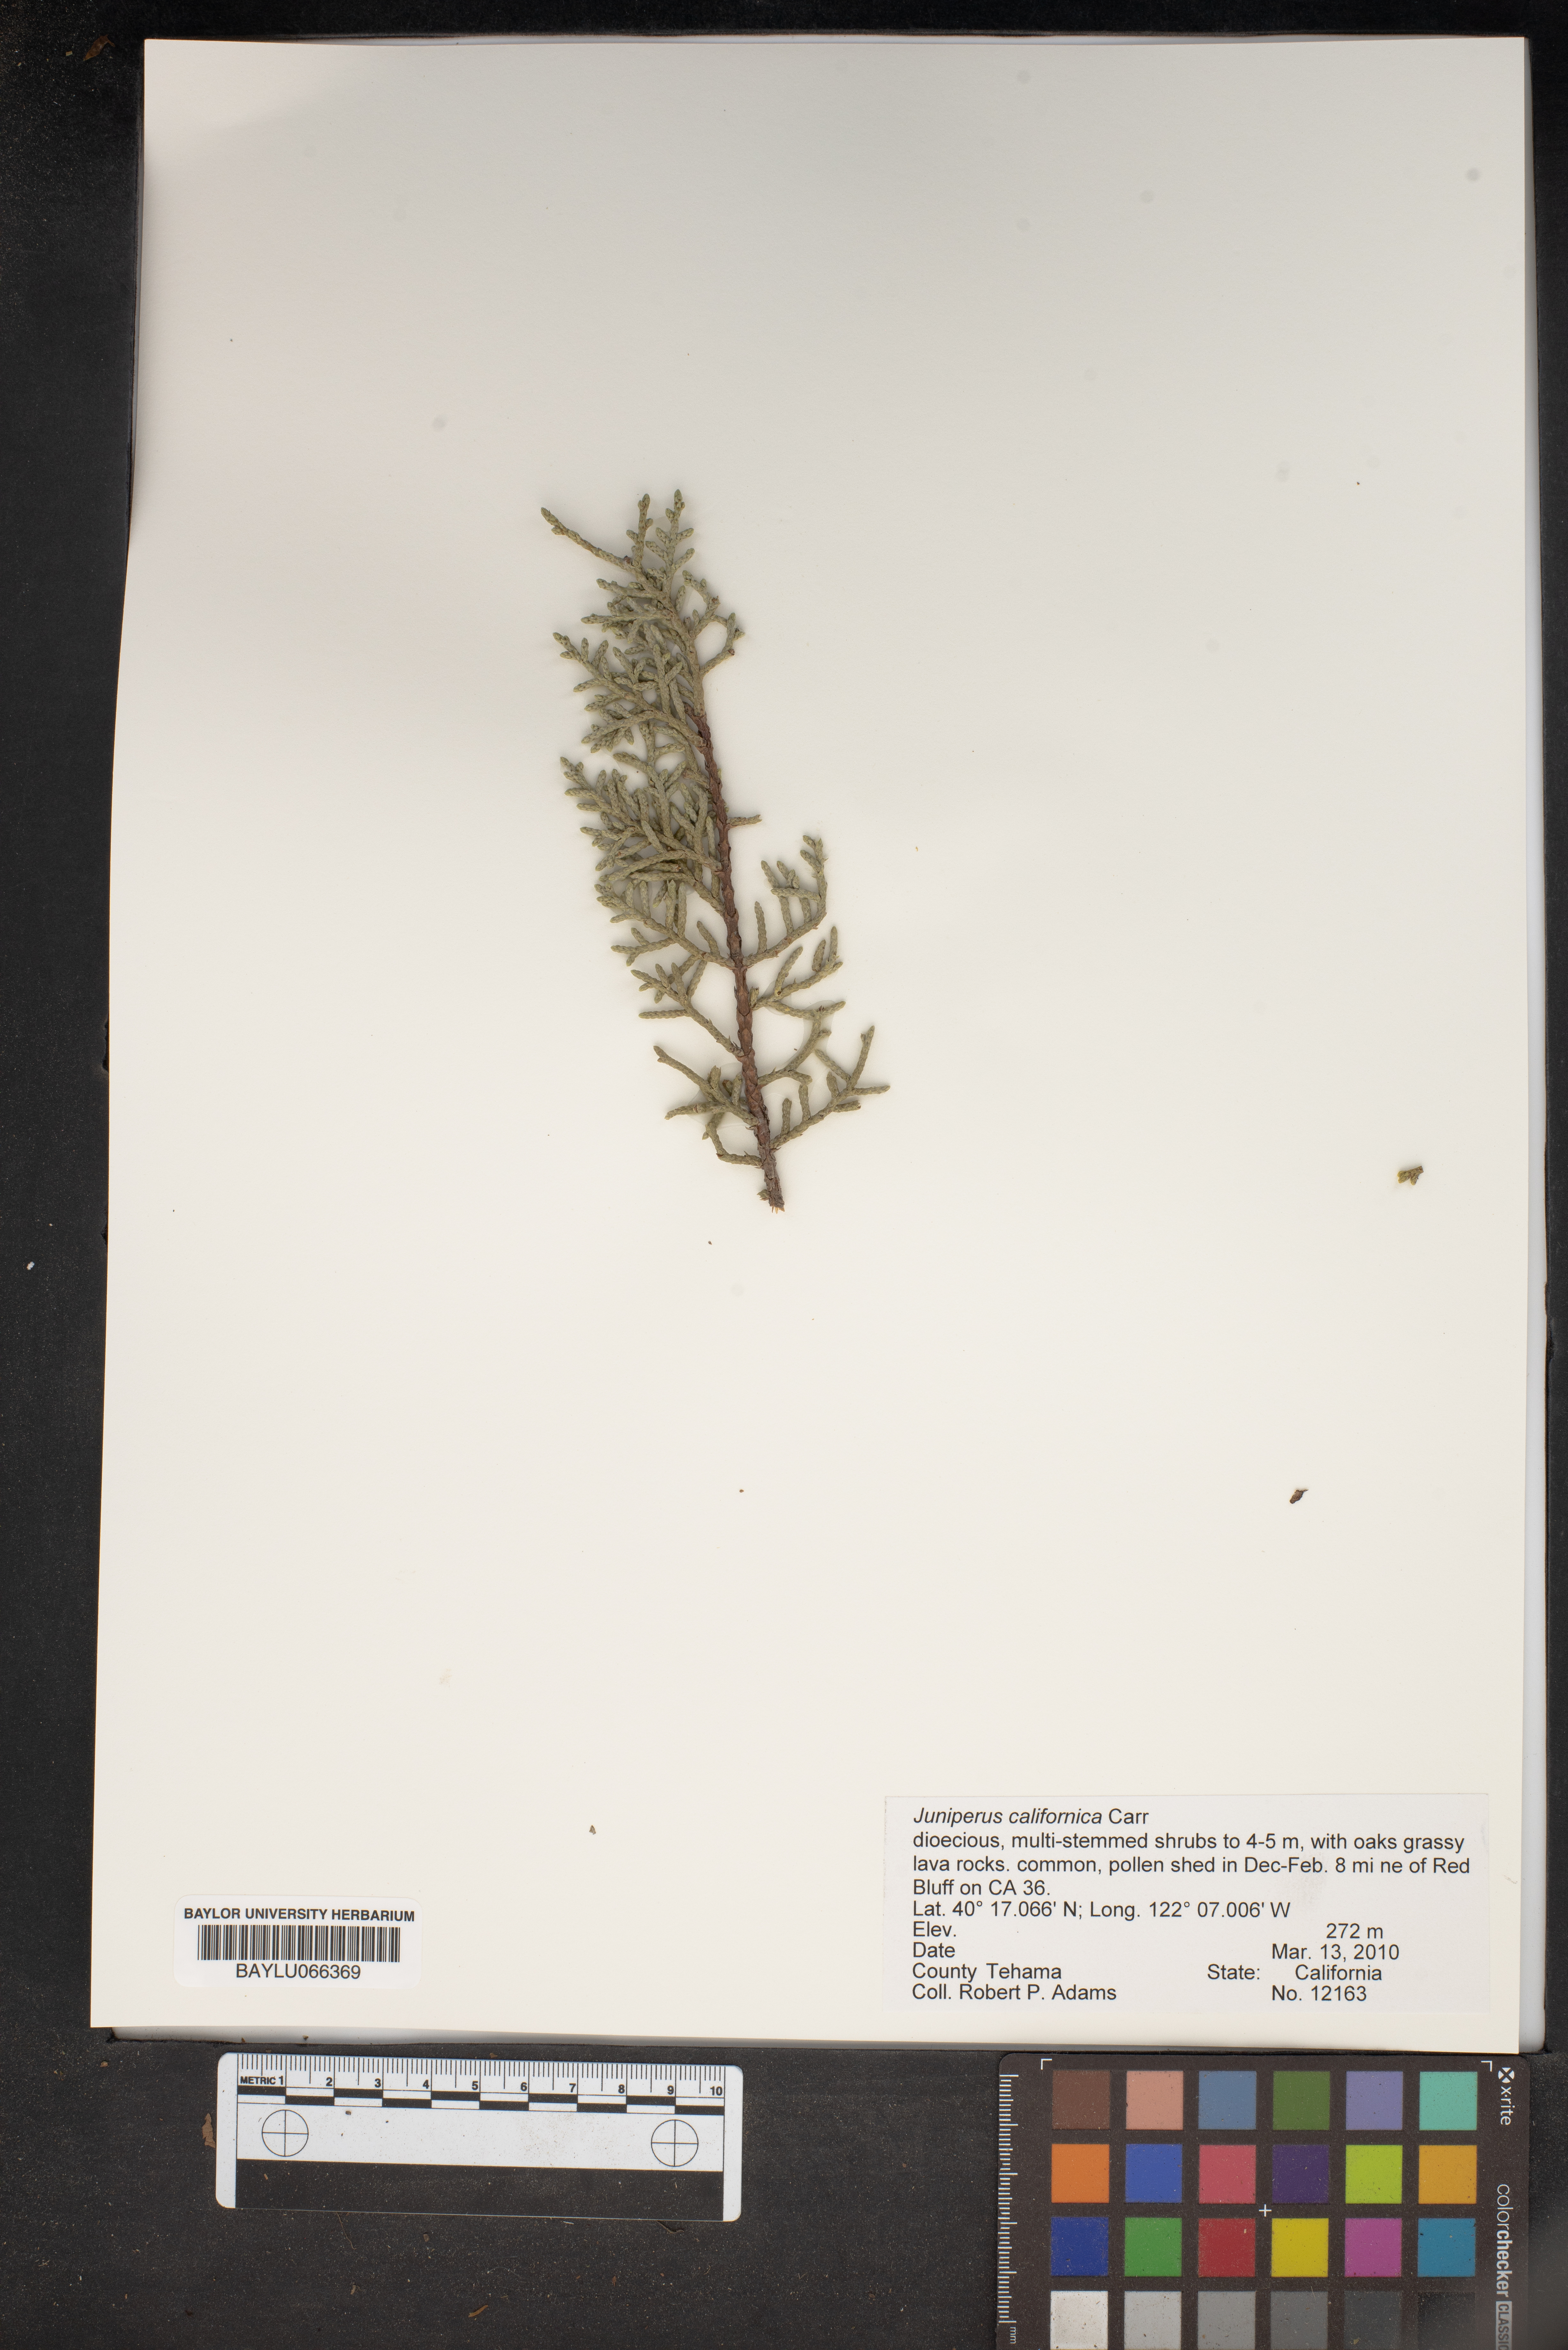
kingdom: Plantae
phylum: Tracheophyta
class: Pinopsida
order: Pinales
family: Cupressaceae
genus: Juniperus
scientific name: Juniperus californica
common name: California juniper
